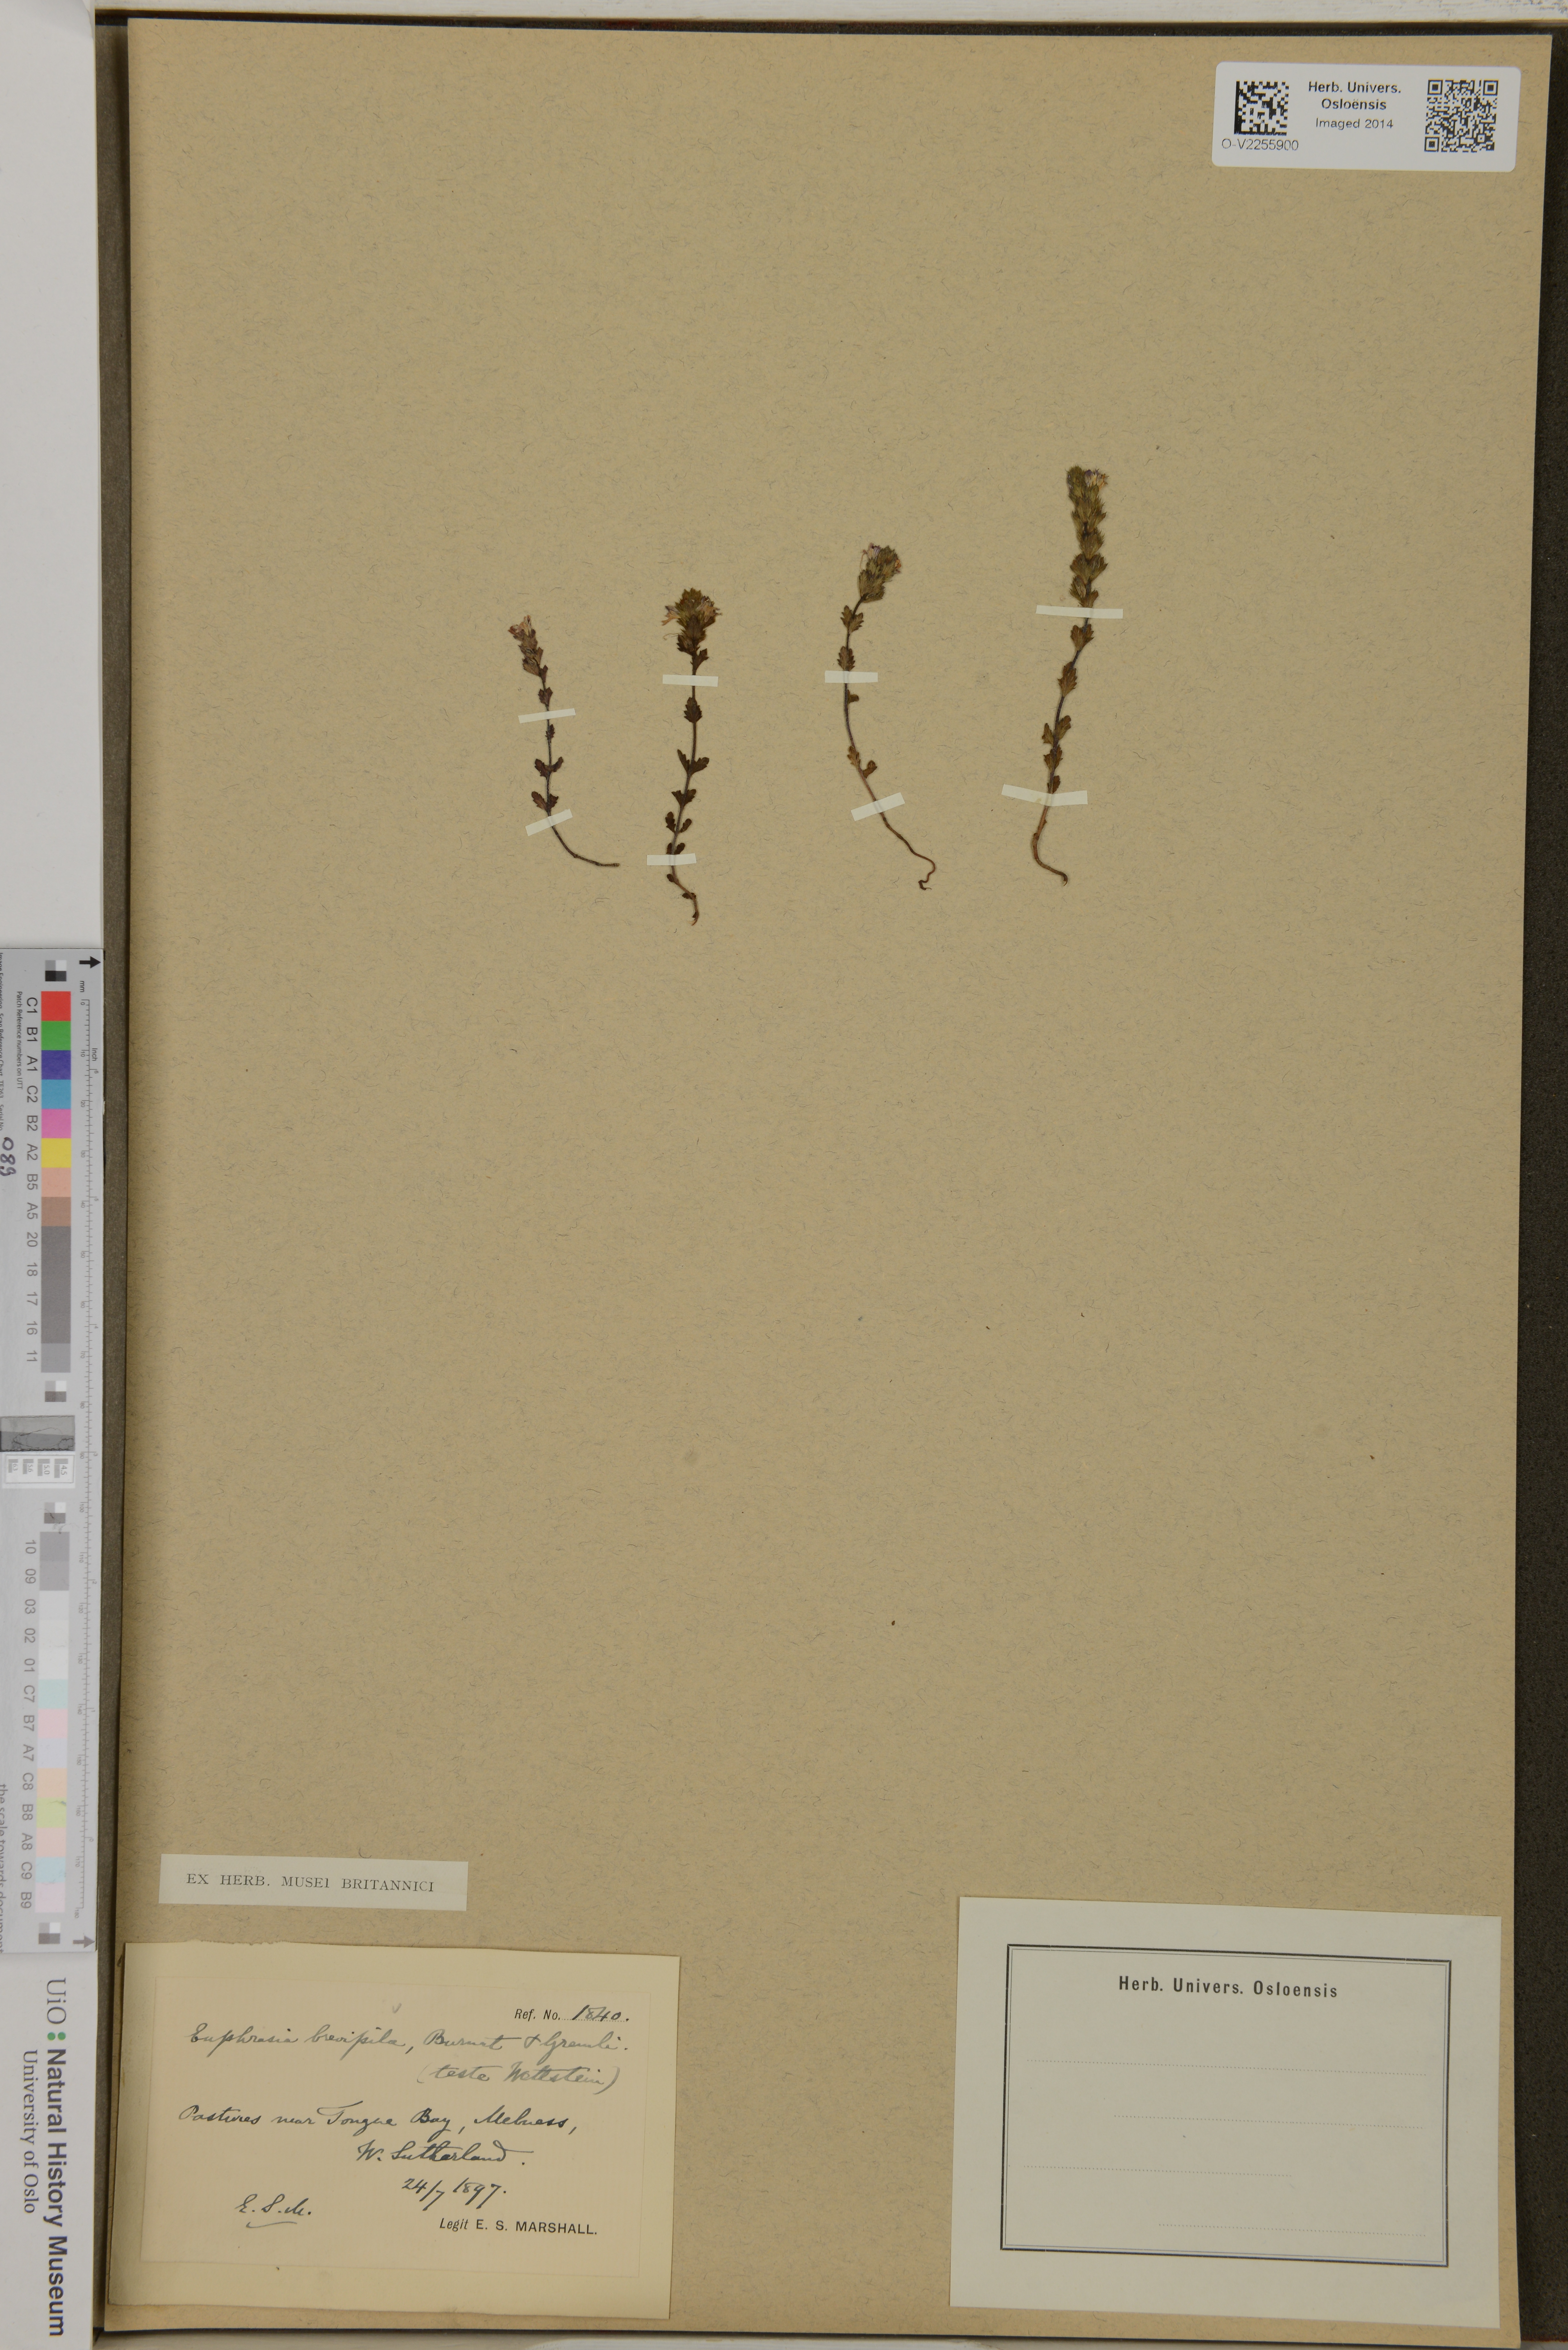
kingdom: Plantae
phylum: Tracheophyta
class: Magnoliopsida
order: Lamiales
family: Orobanchaceae
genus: Euphrasia
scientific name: Euphrasia vernalis
